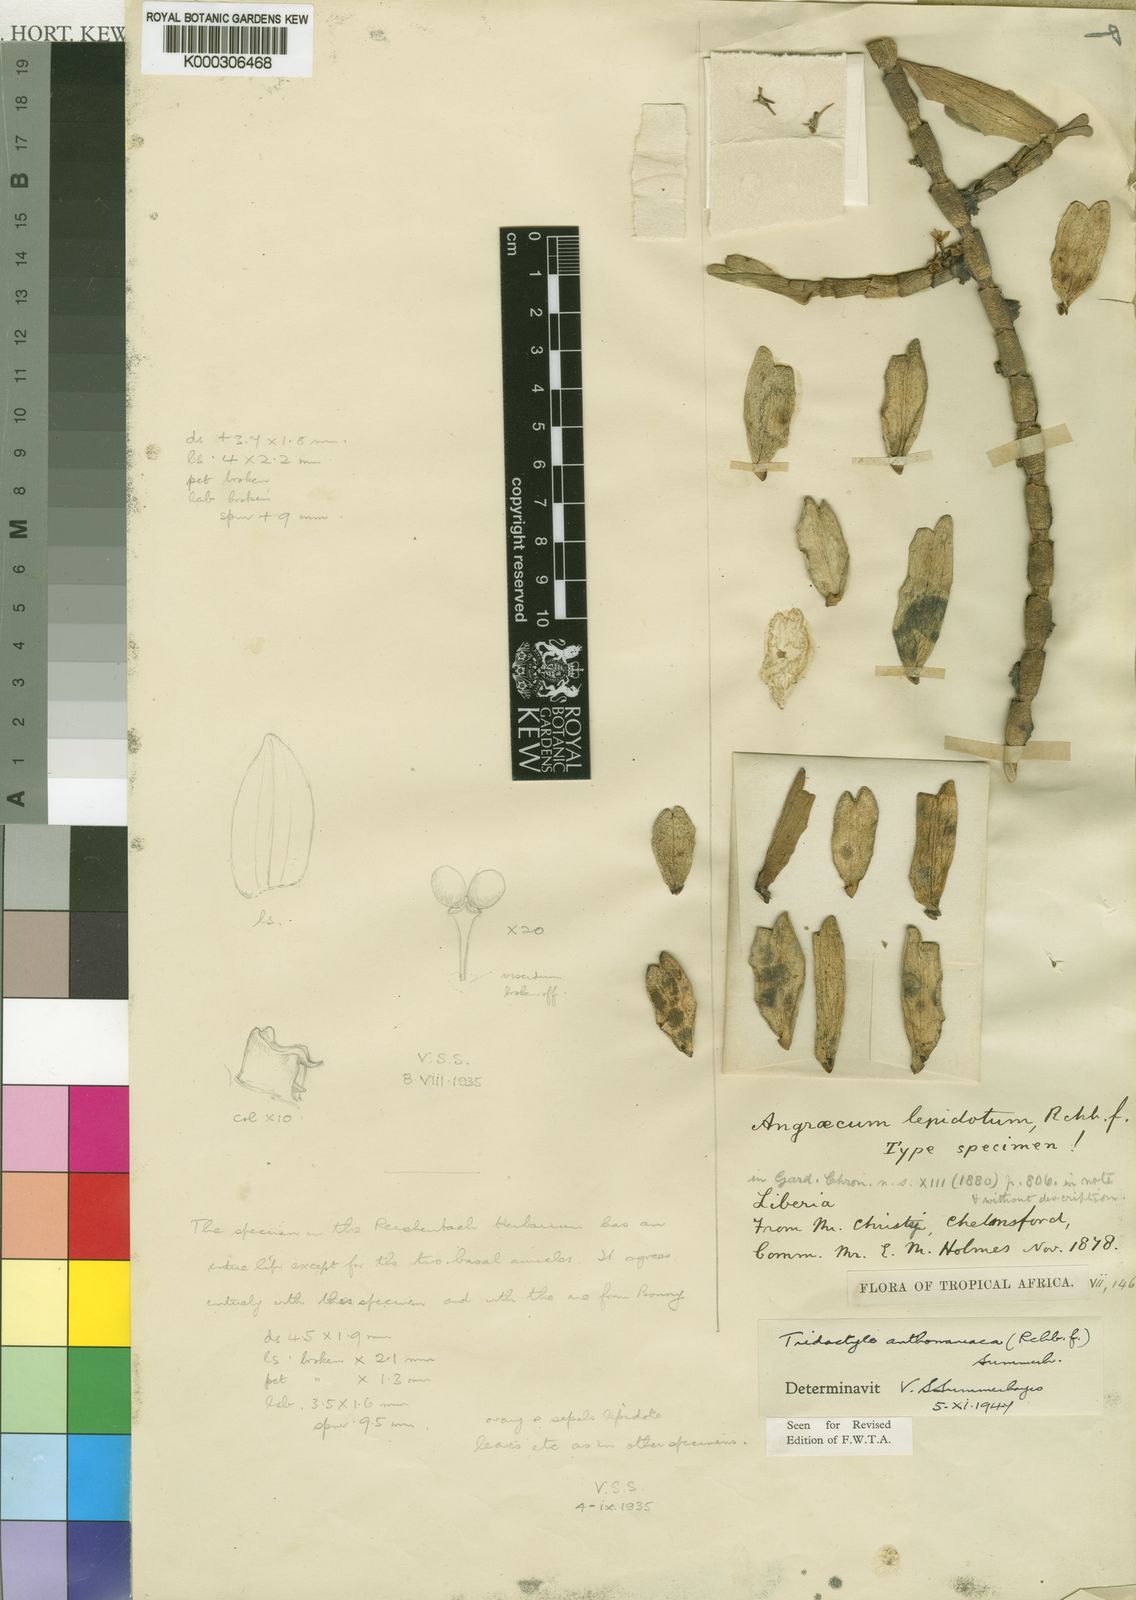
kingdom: Plantae
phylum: Tracheophyta
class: Liliopsida
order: Asparagales
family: Orchidaceae
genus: Tridactyle
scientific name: Tridactyle anthomaniaca
